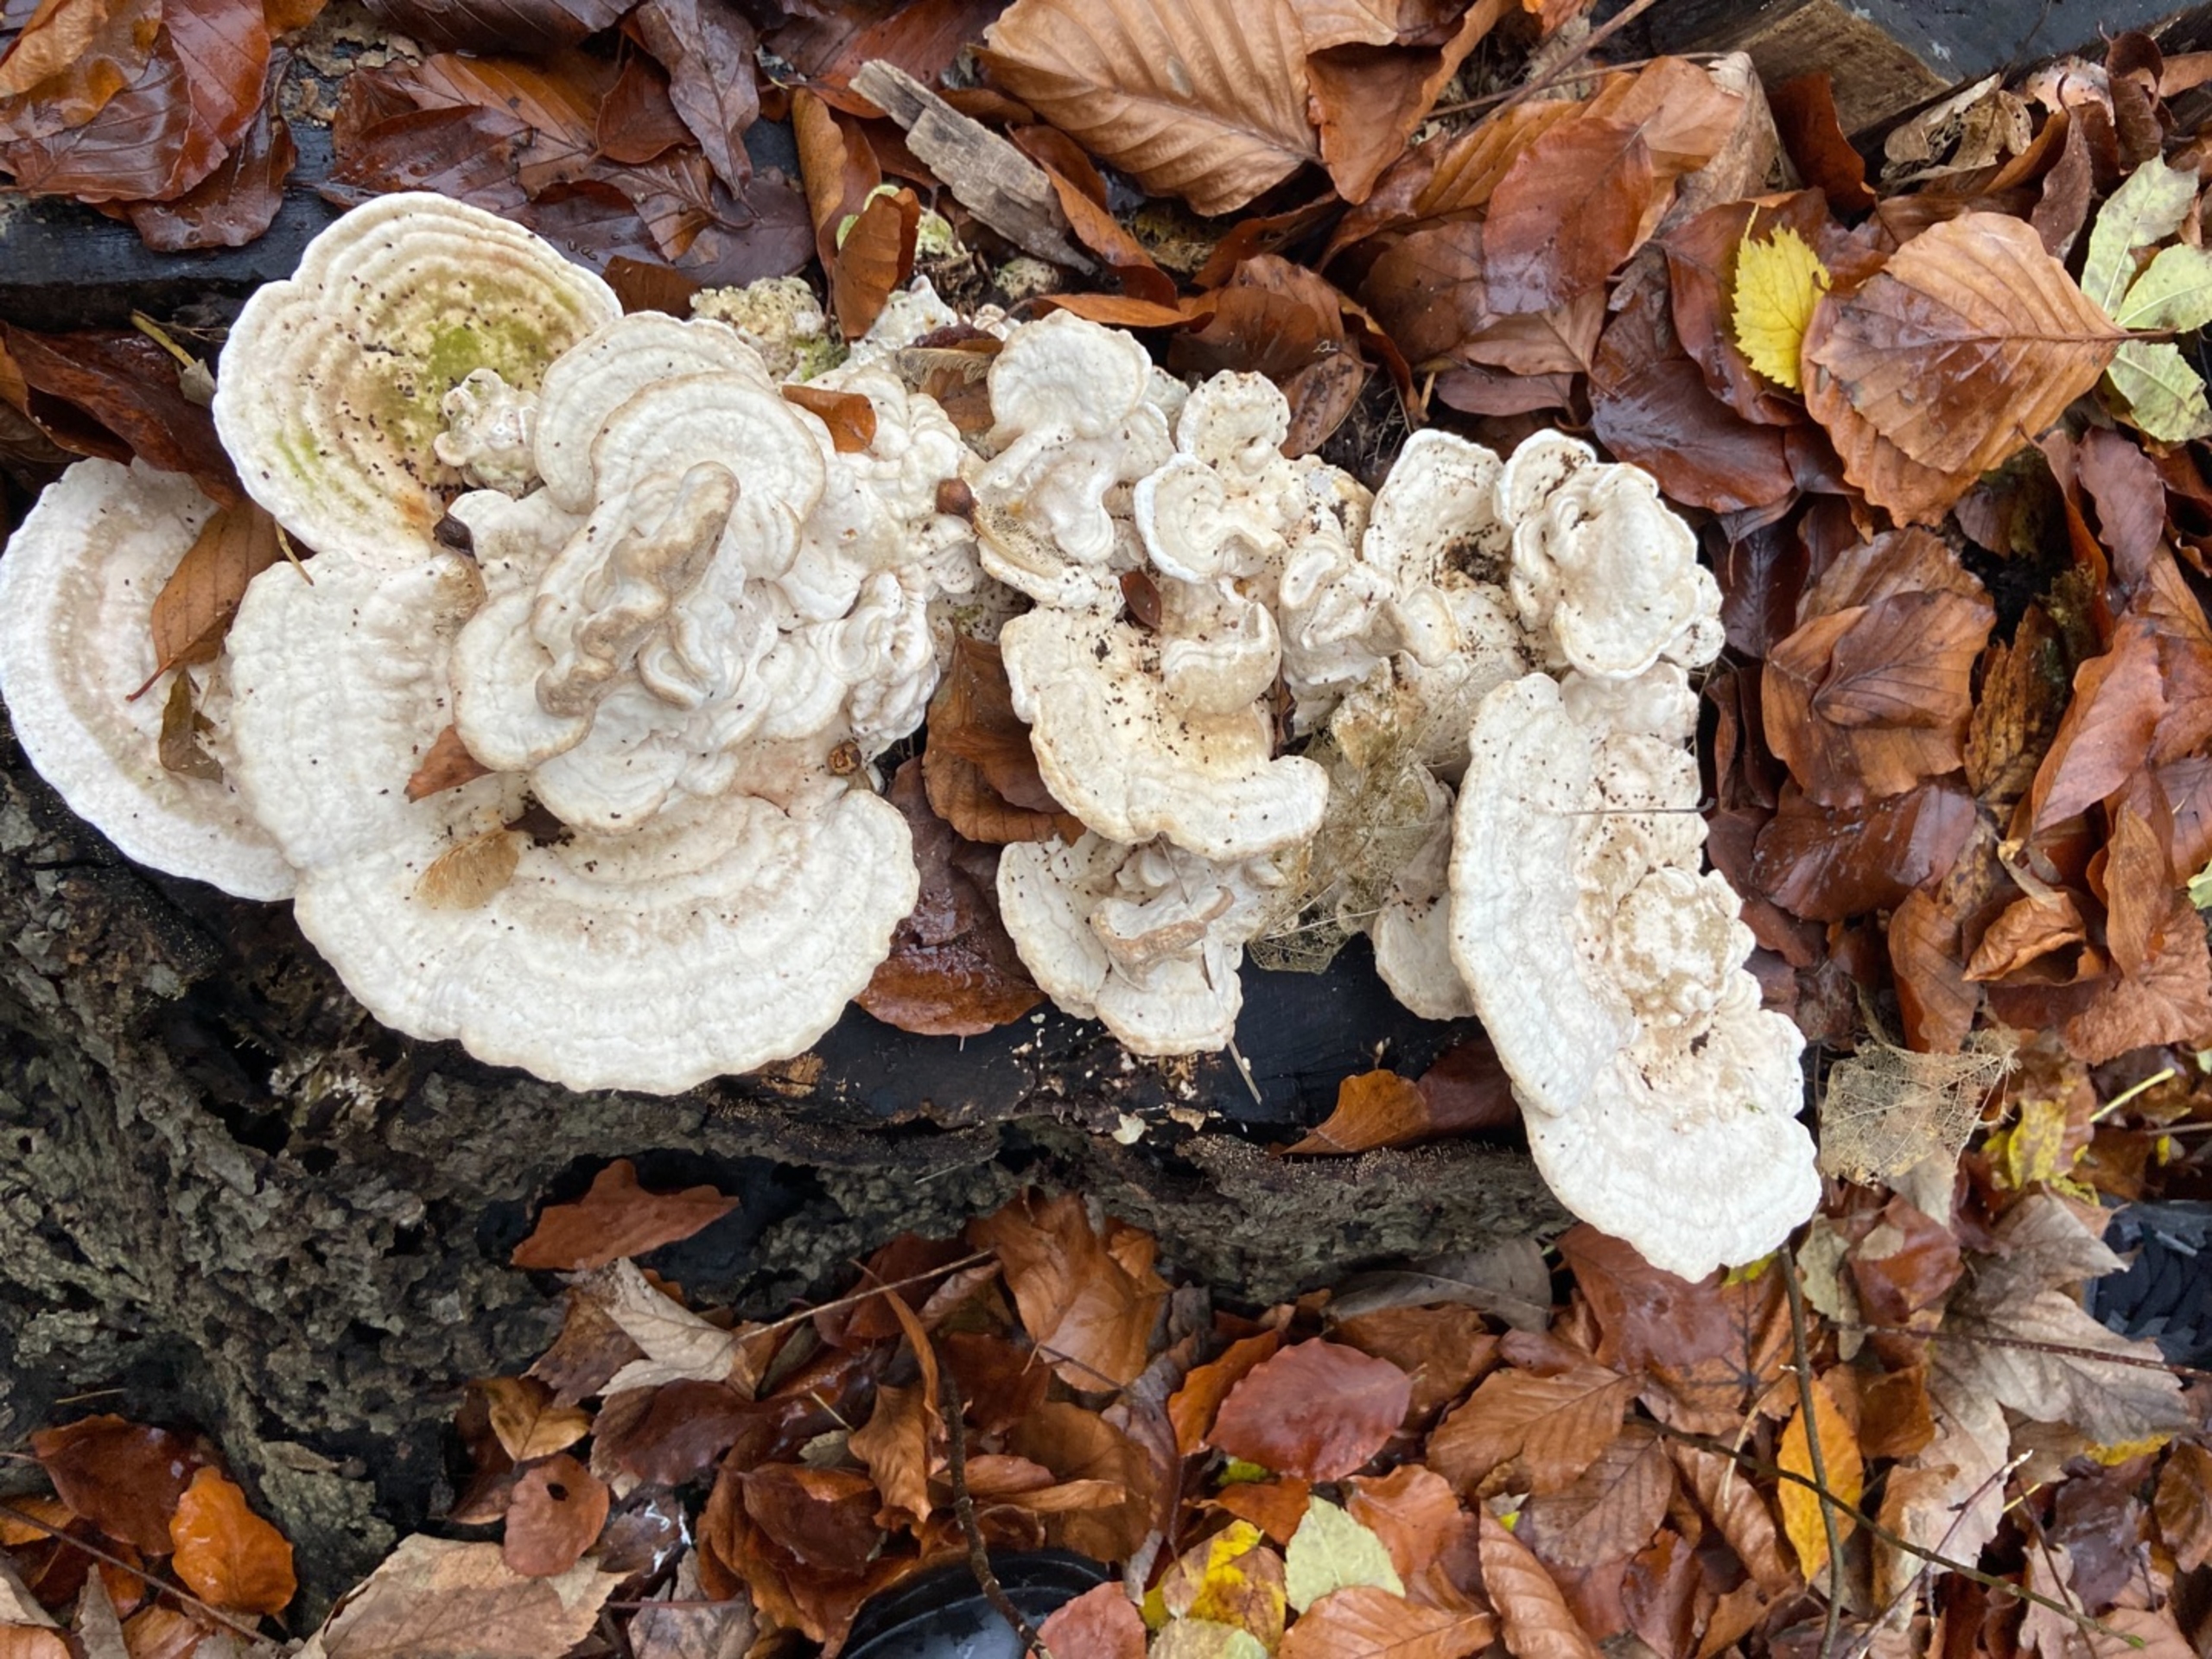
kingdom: Fungi
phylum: Basidiomycota
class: Agaricomycetes
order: Polyporales
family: Polyporaceae
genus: Trametes
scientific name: Trametes gibbosa
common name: Puklet læderporesvamp
